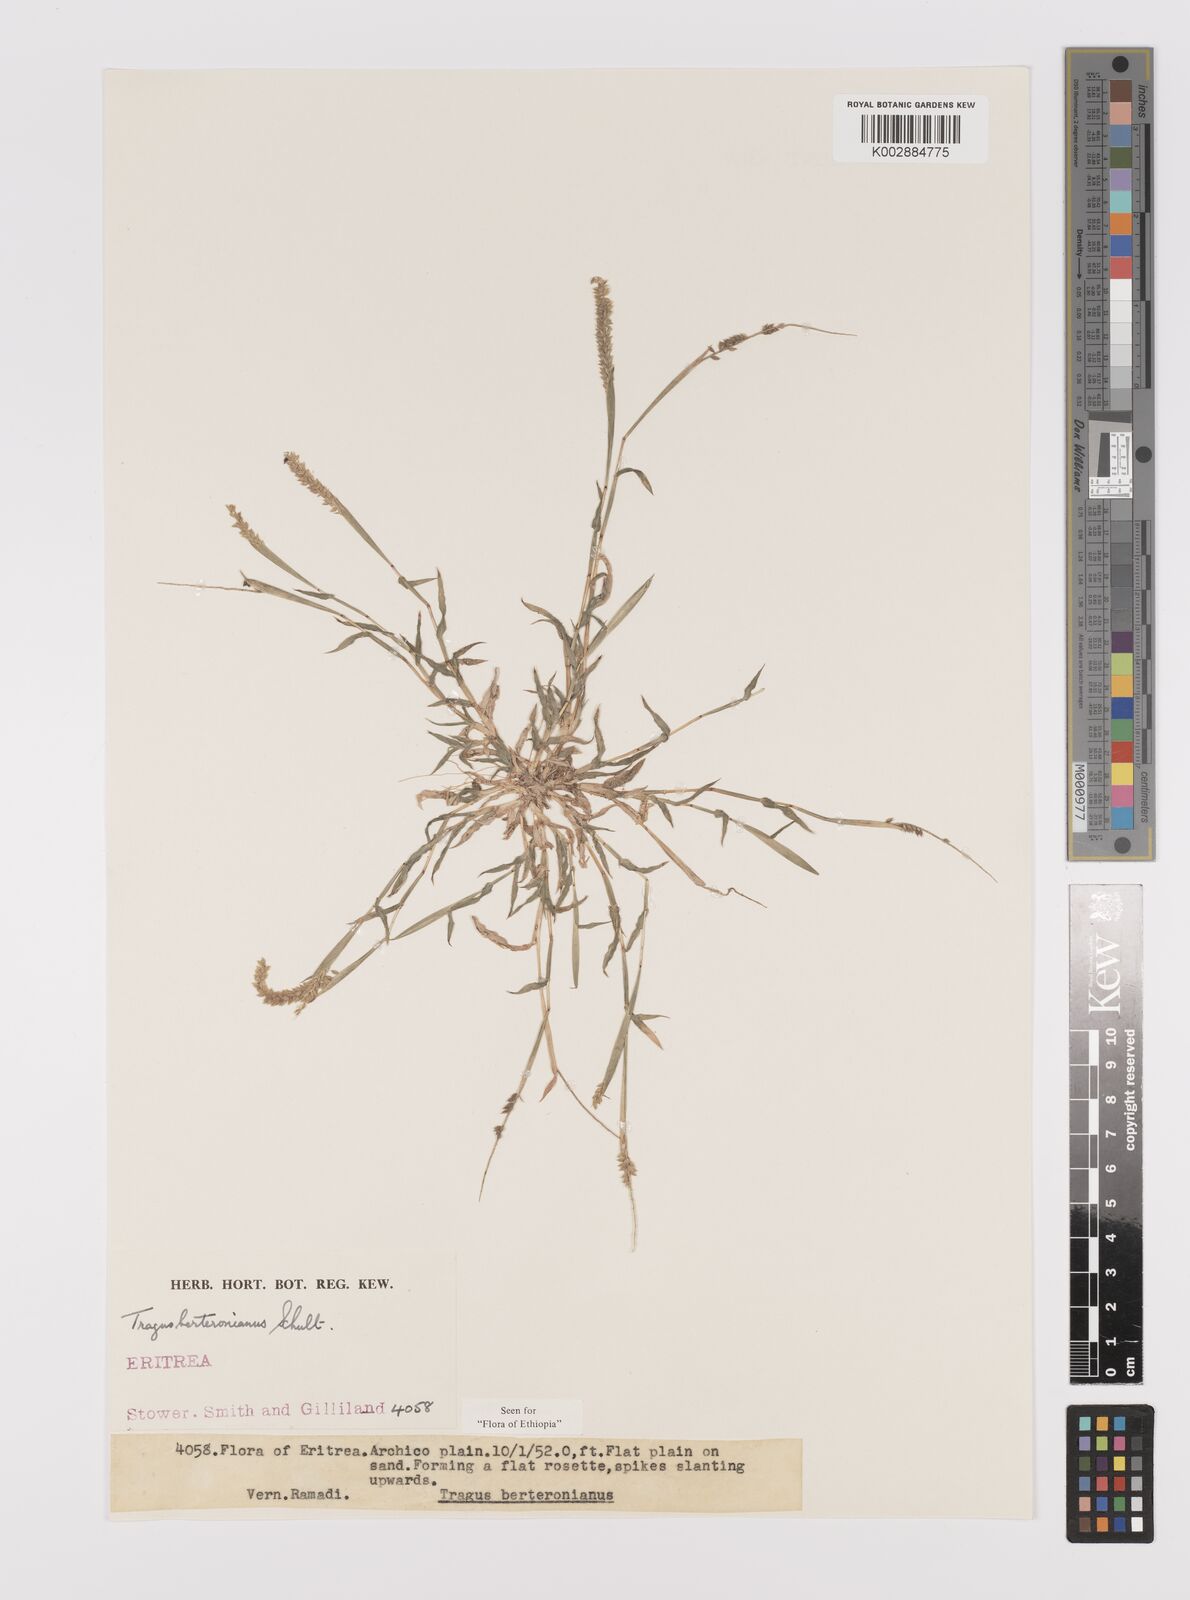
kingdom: Plantae
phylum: Tracheophyta
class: Liliopsida
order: Poales
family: Poaceae
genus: Tragus
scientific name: Tragus berteronianus
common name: African bur-grass
